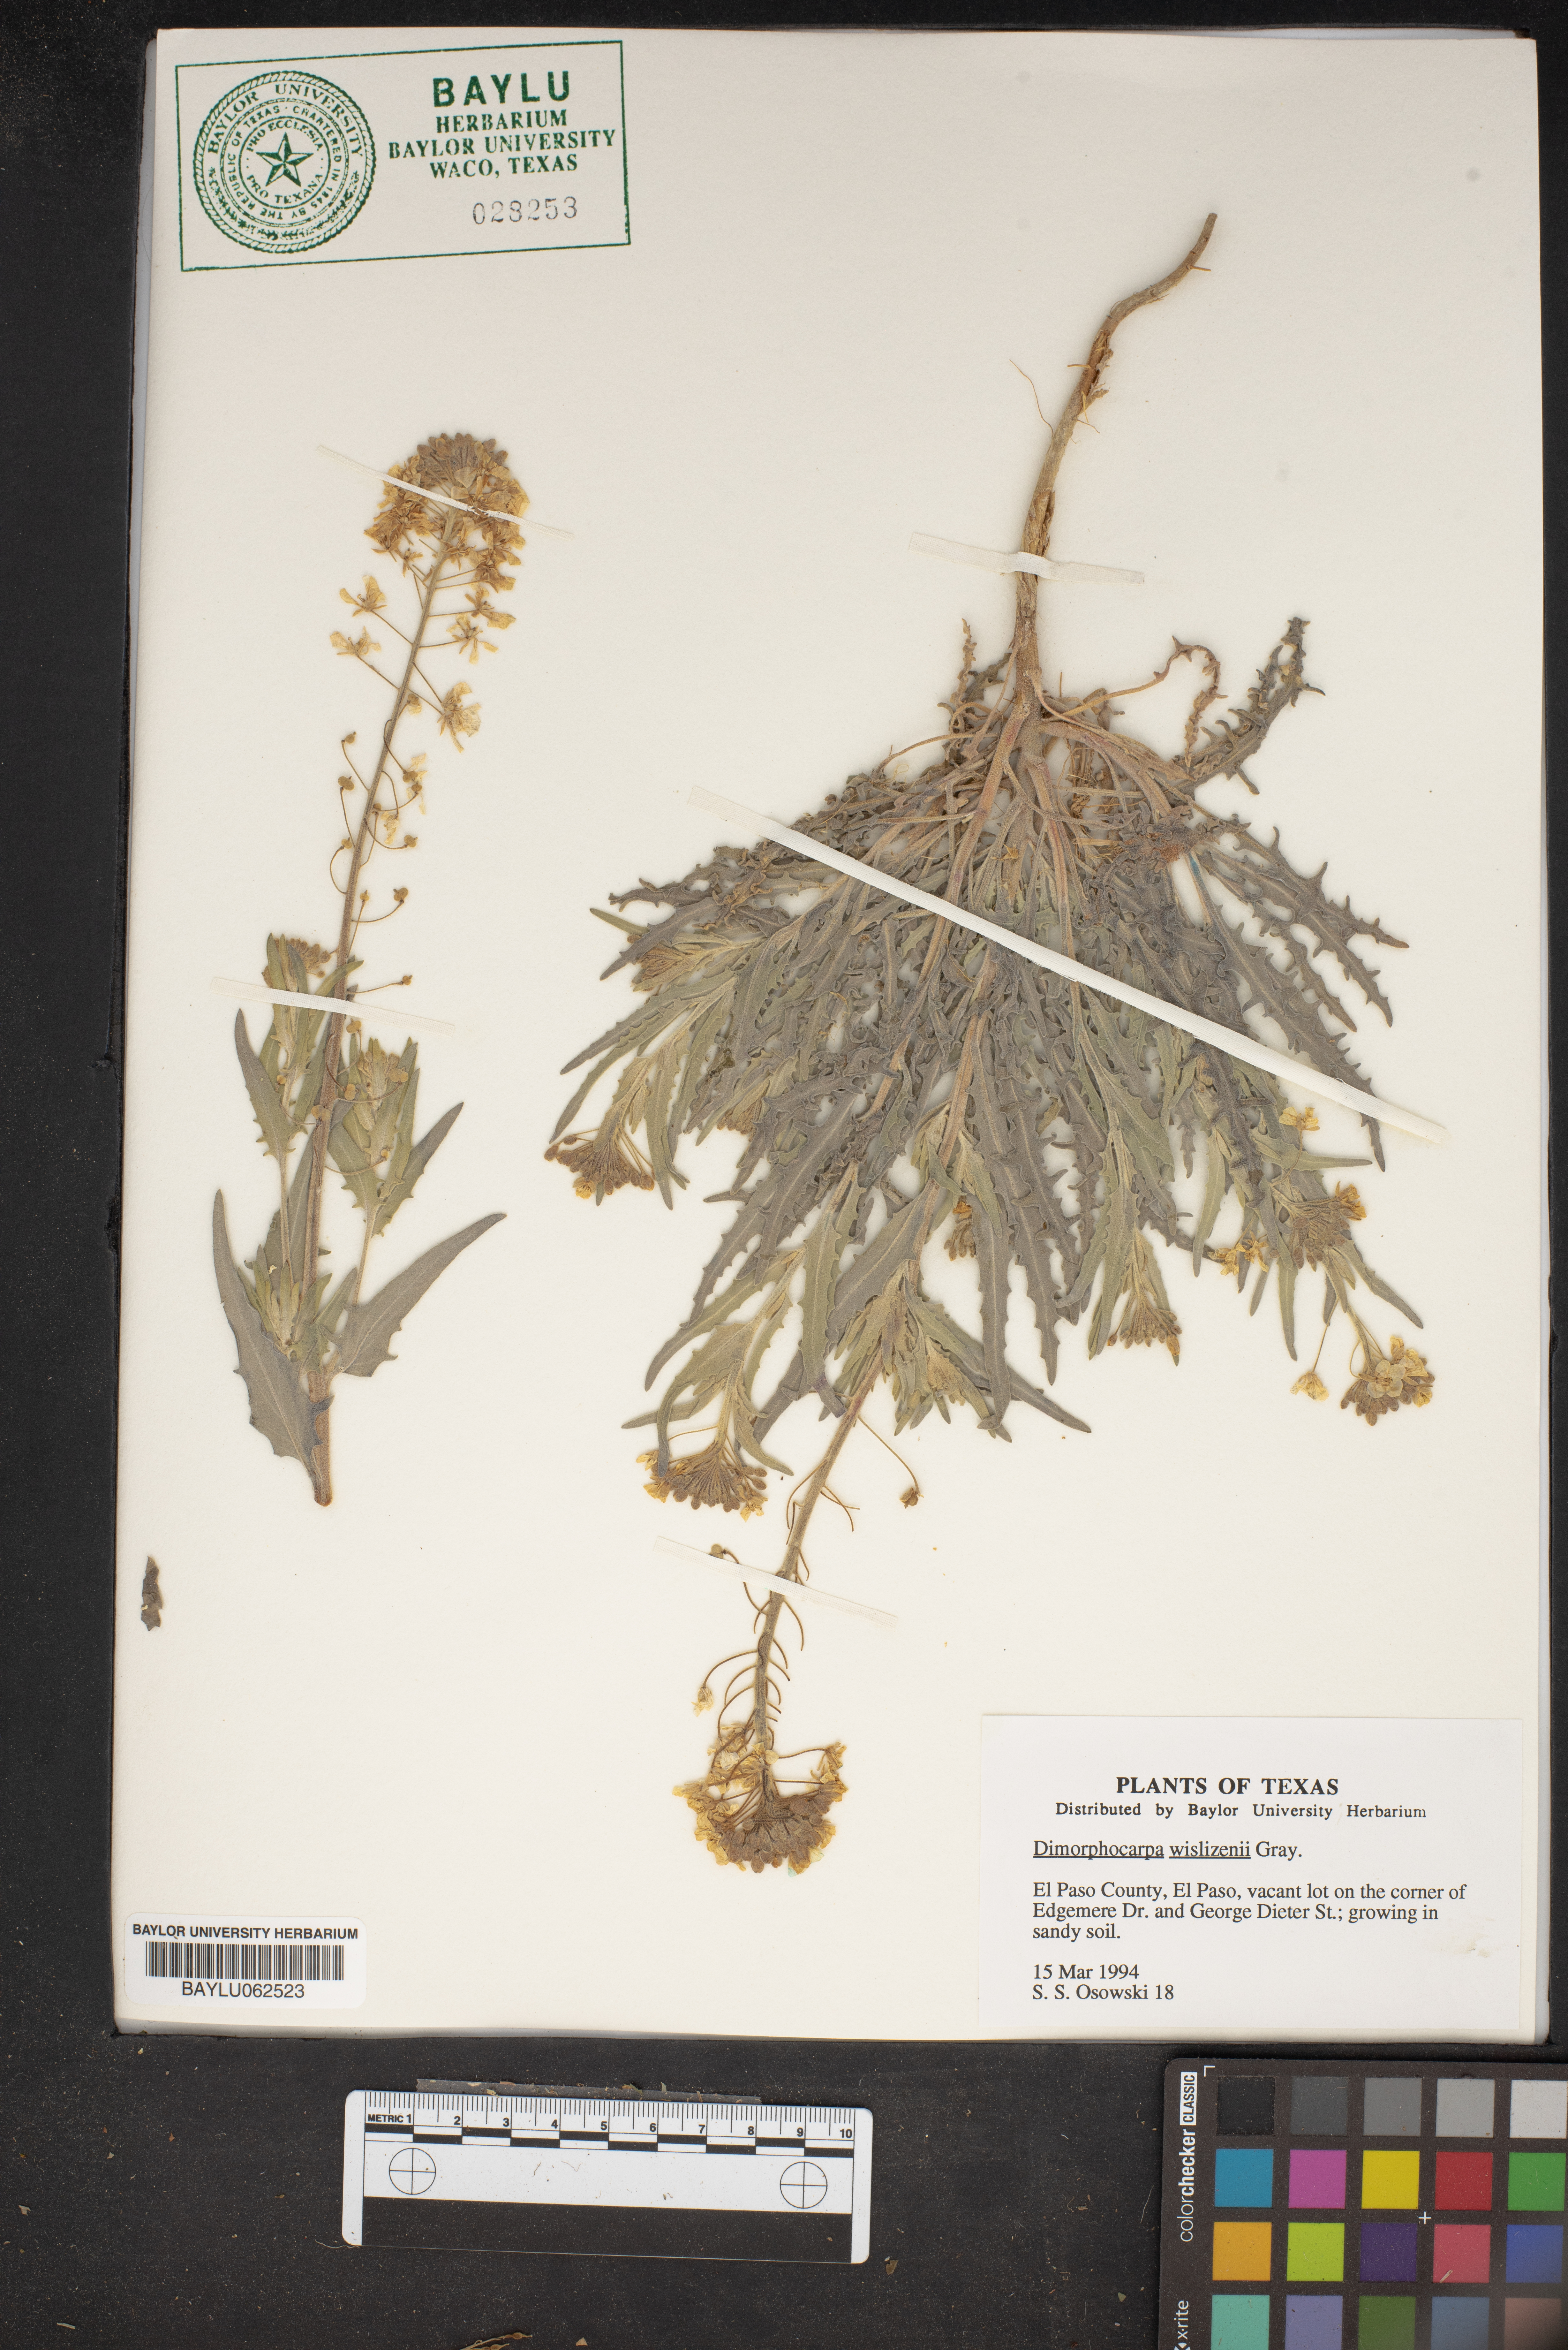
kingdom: Plantae
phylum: Tracheophyta
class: Magnoliopsida
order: Brassicales
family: Brassicaceae
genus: Dimorphocarpa
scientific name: Dimorphocarpa wislizenii
